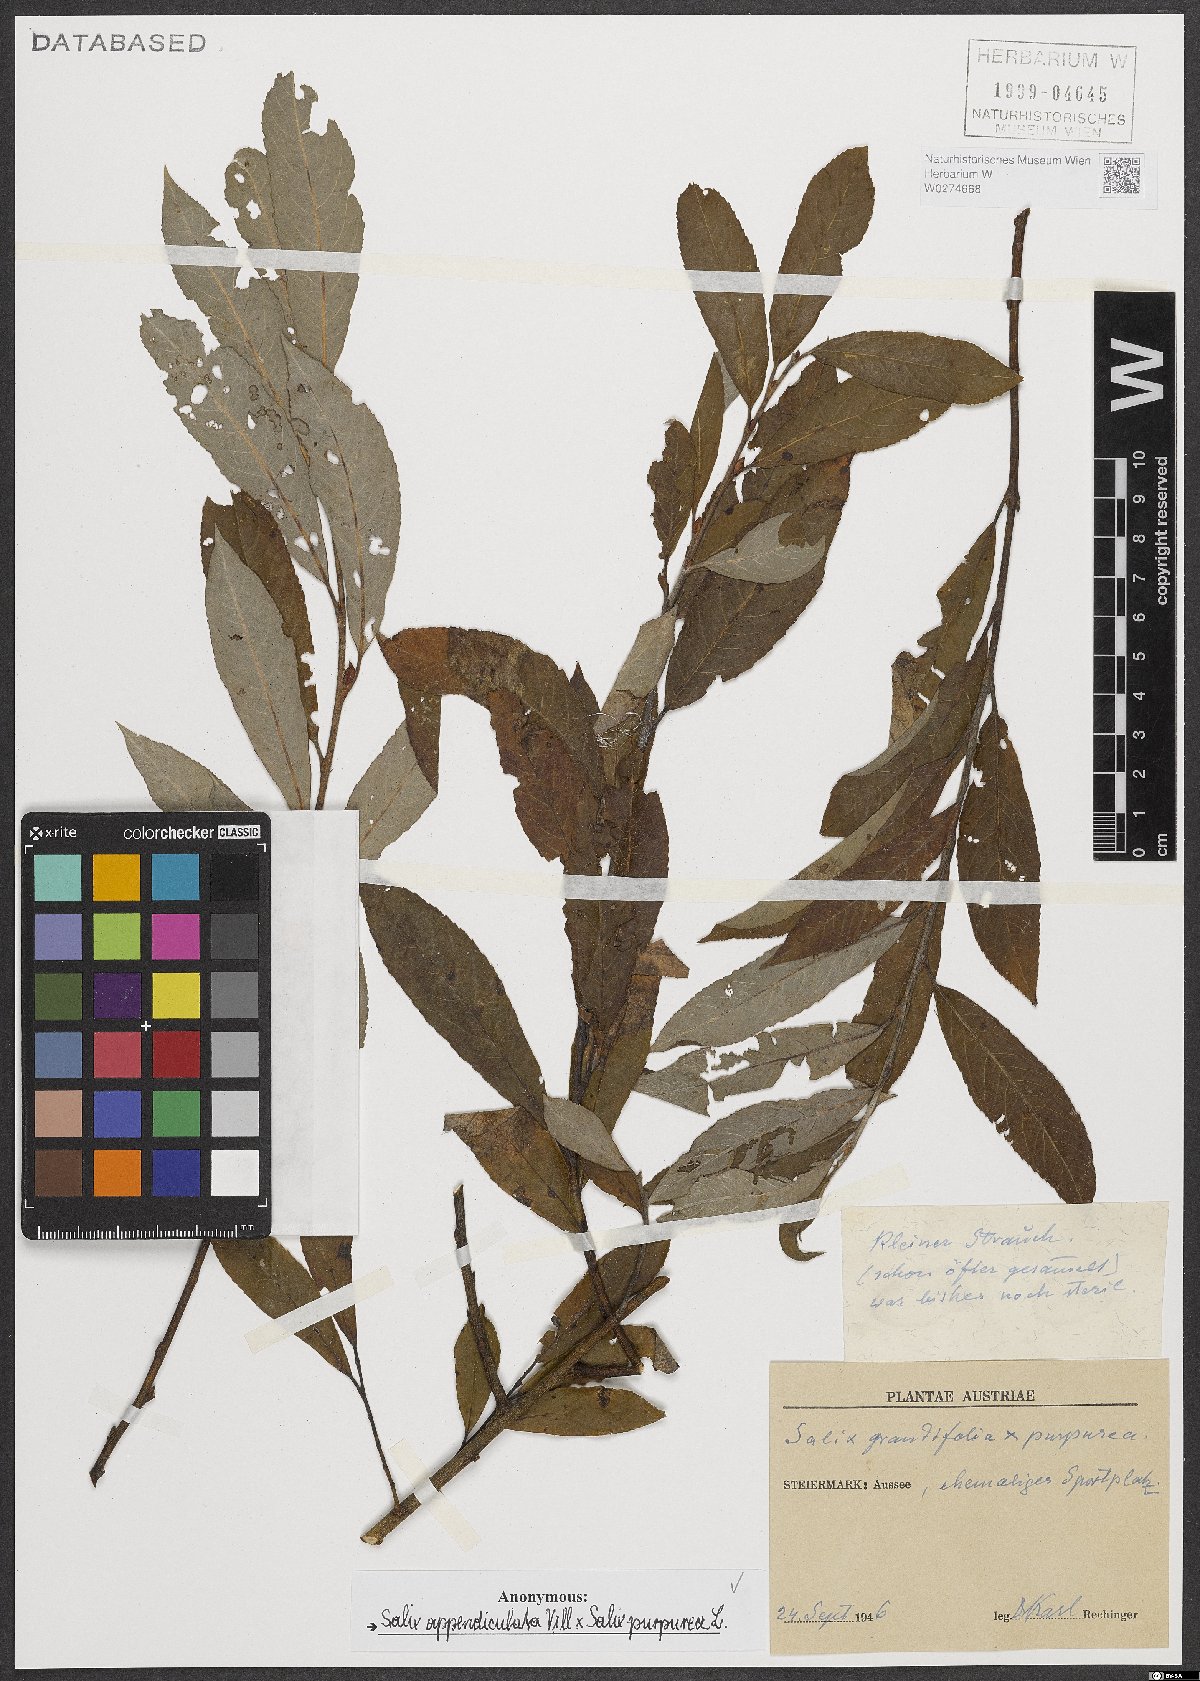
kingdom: Plantae
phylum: Tracheophyta
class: Magnoliopsida
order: Malpighiales
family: Salicaceae
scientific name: Salicaceae
